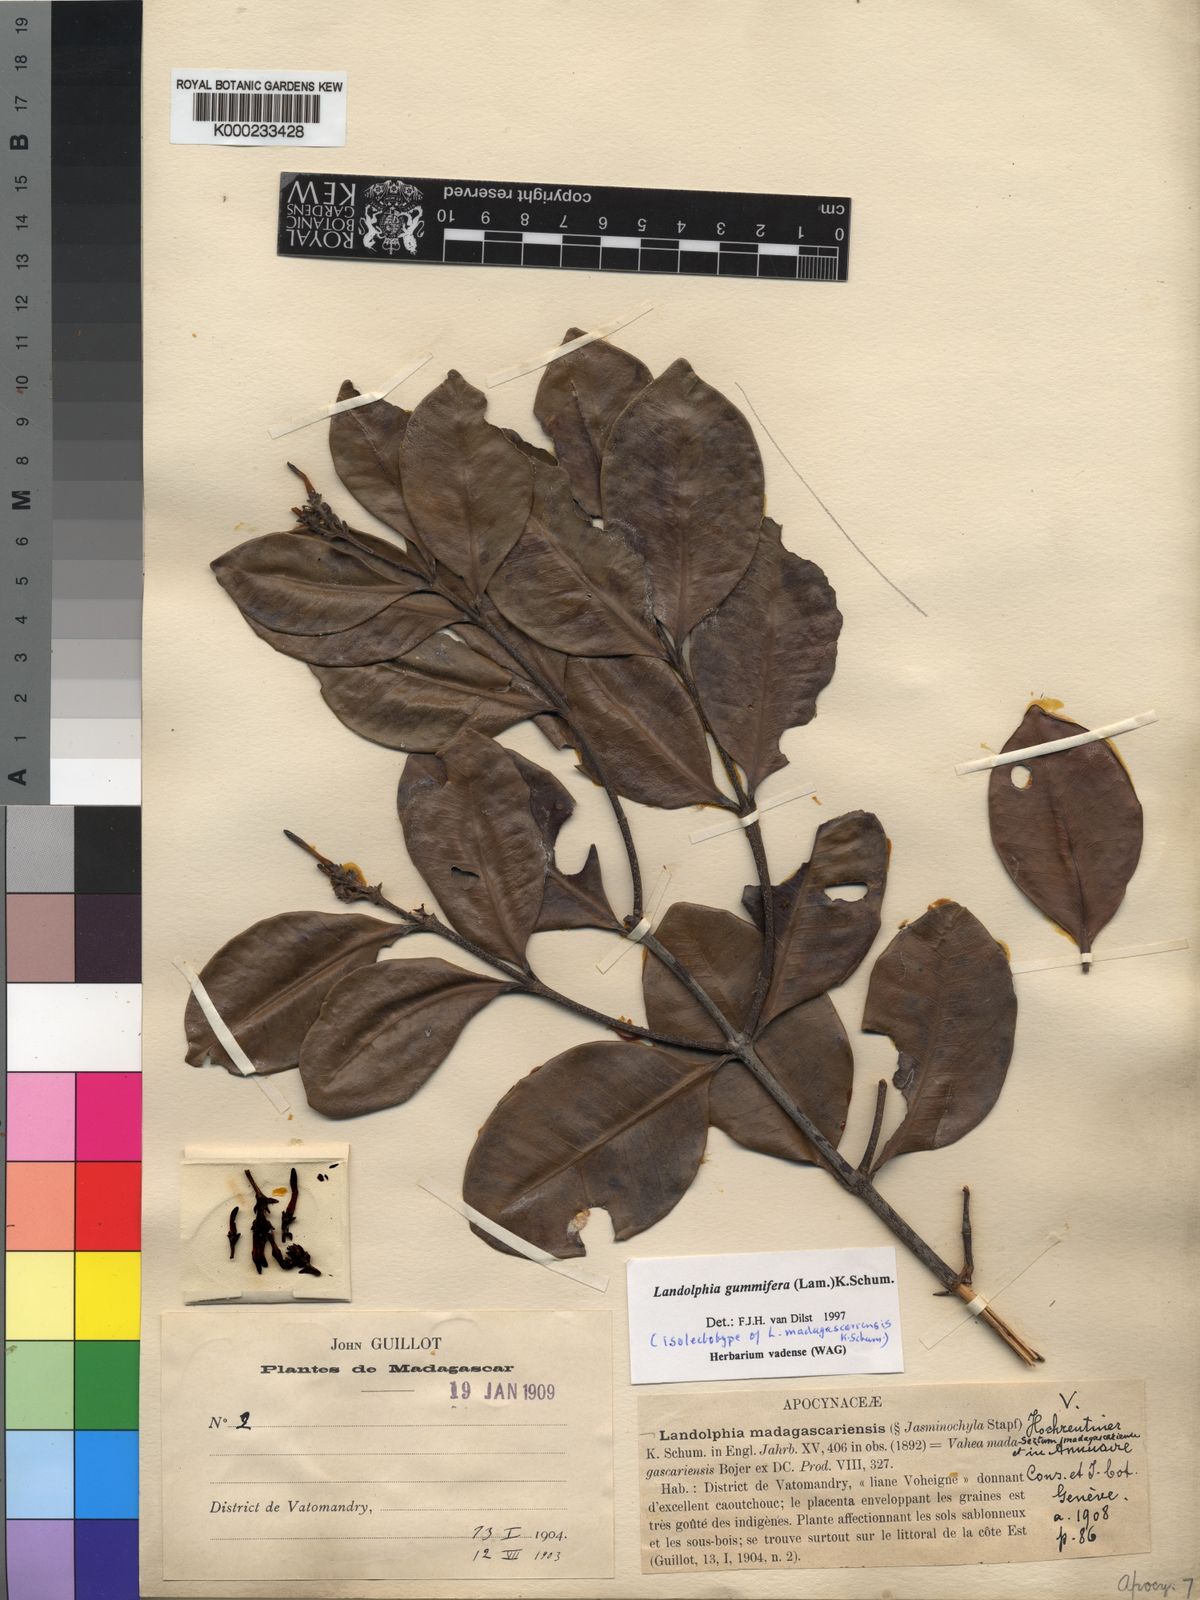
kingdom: Plantae
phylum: Tracheophyta
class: Magnoliopsida
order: Gentianales
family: Apocynaceae
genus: Landolphia
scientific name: Landolphia gummifera
